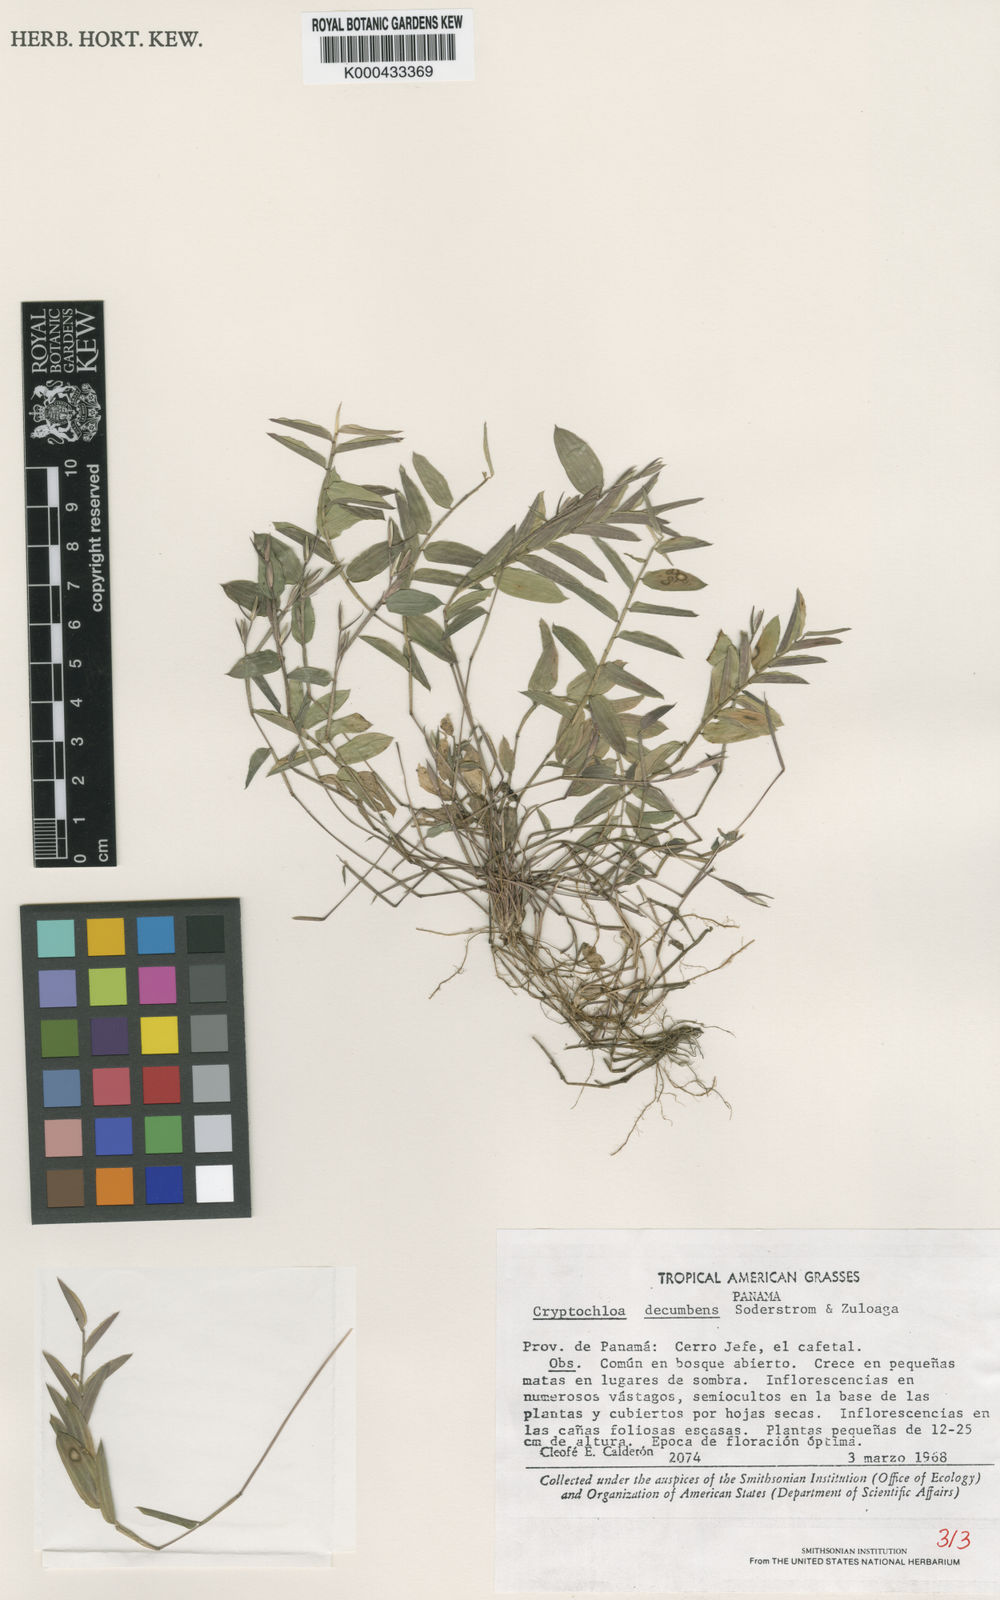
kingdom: Plantae
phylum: Tracheophyta
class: Liliopsida
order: Poales
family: Poaceae
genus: Cryptochloa
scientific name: Cryptochloa decumbens
